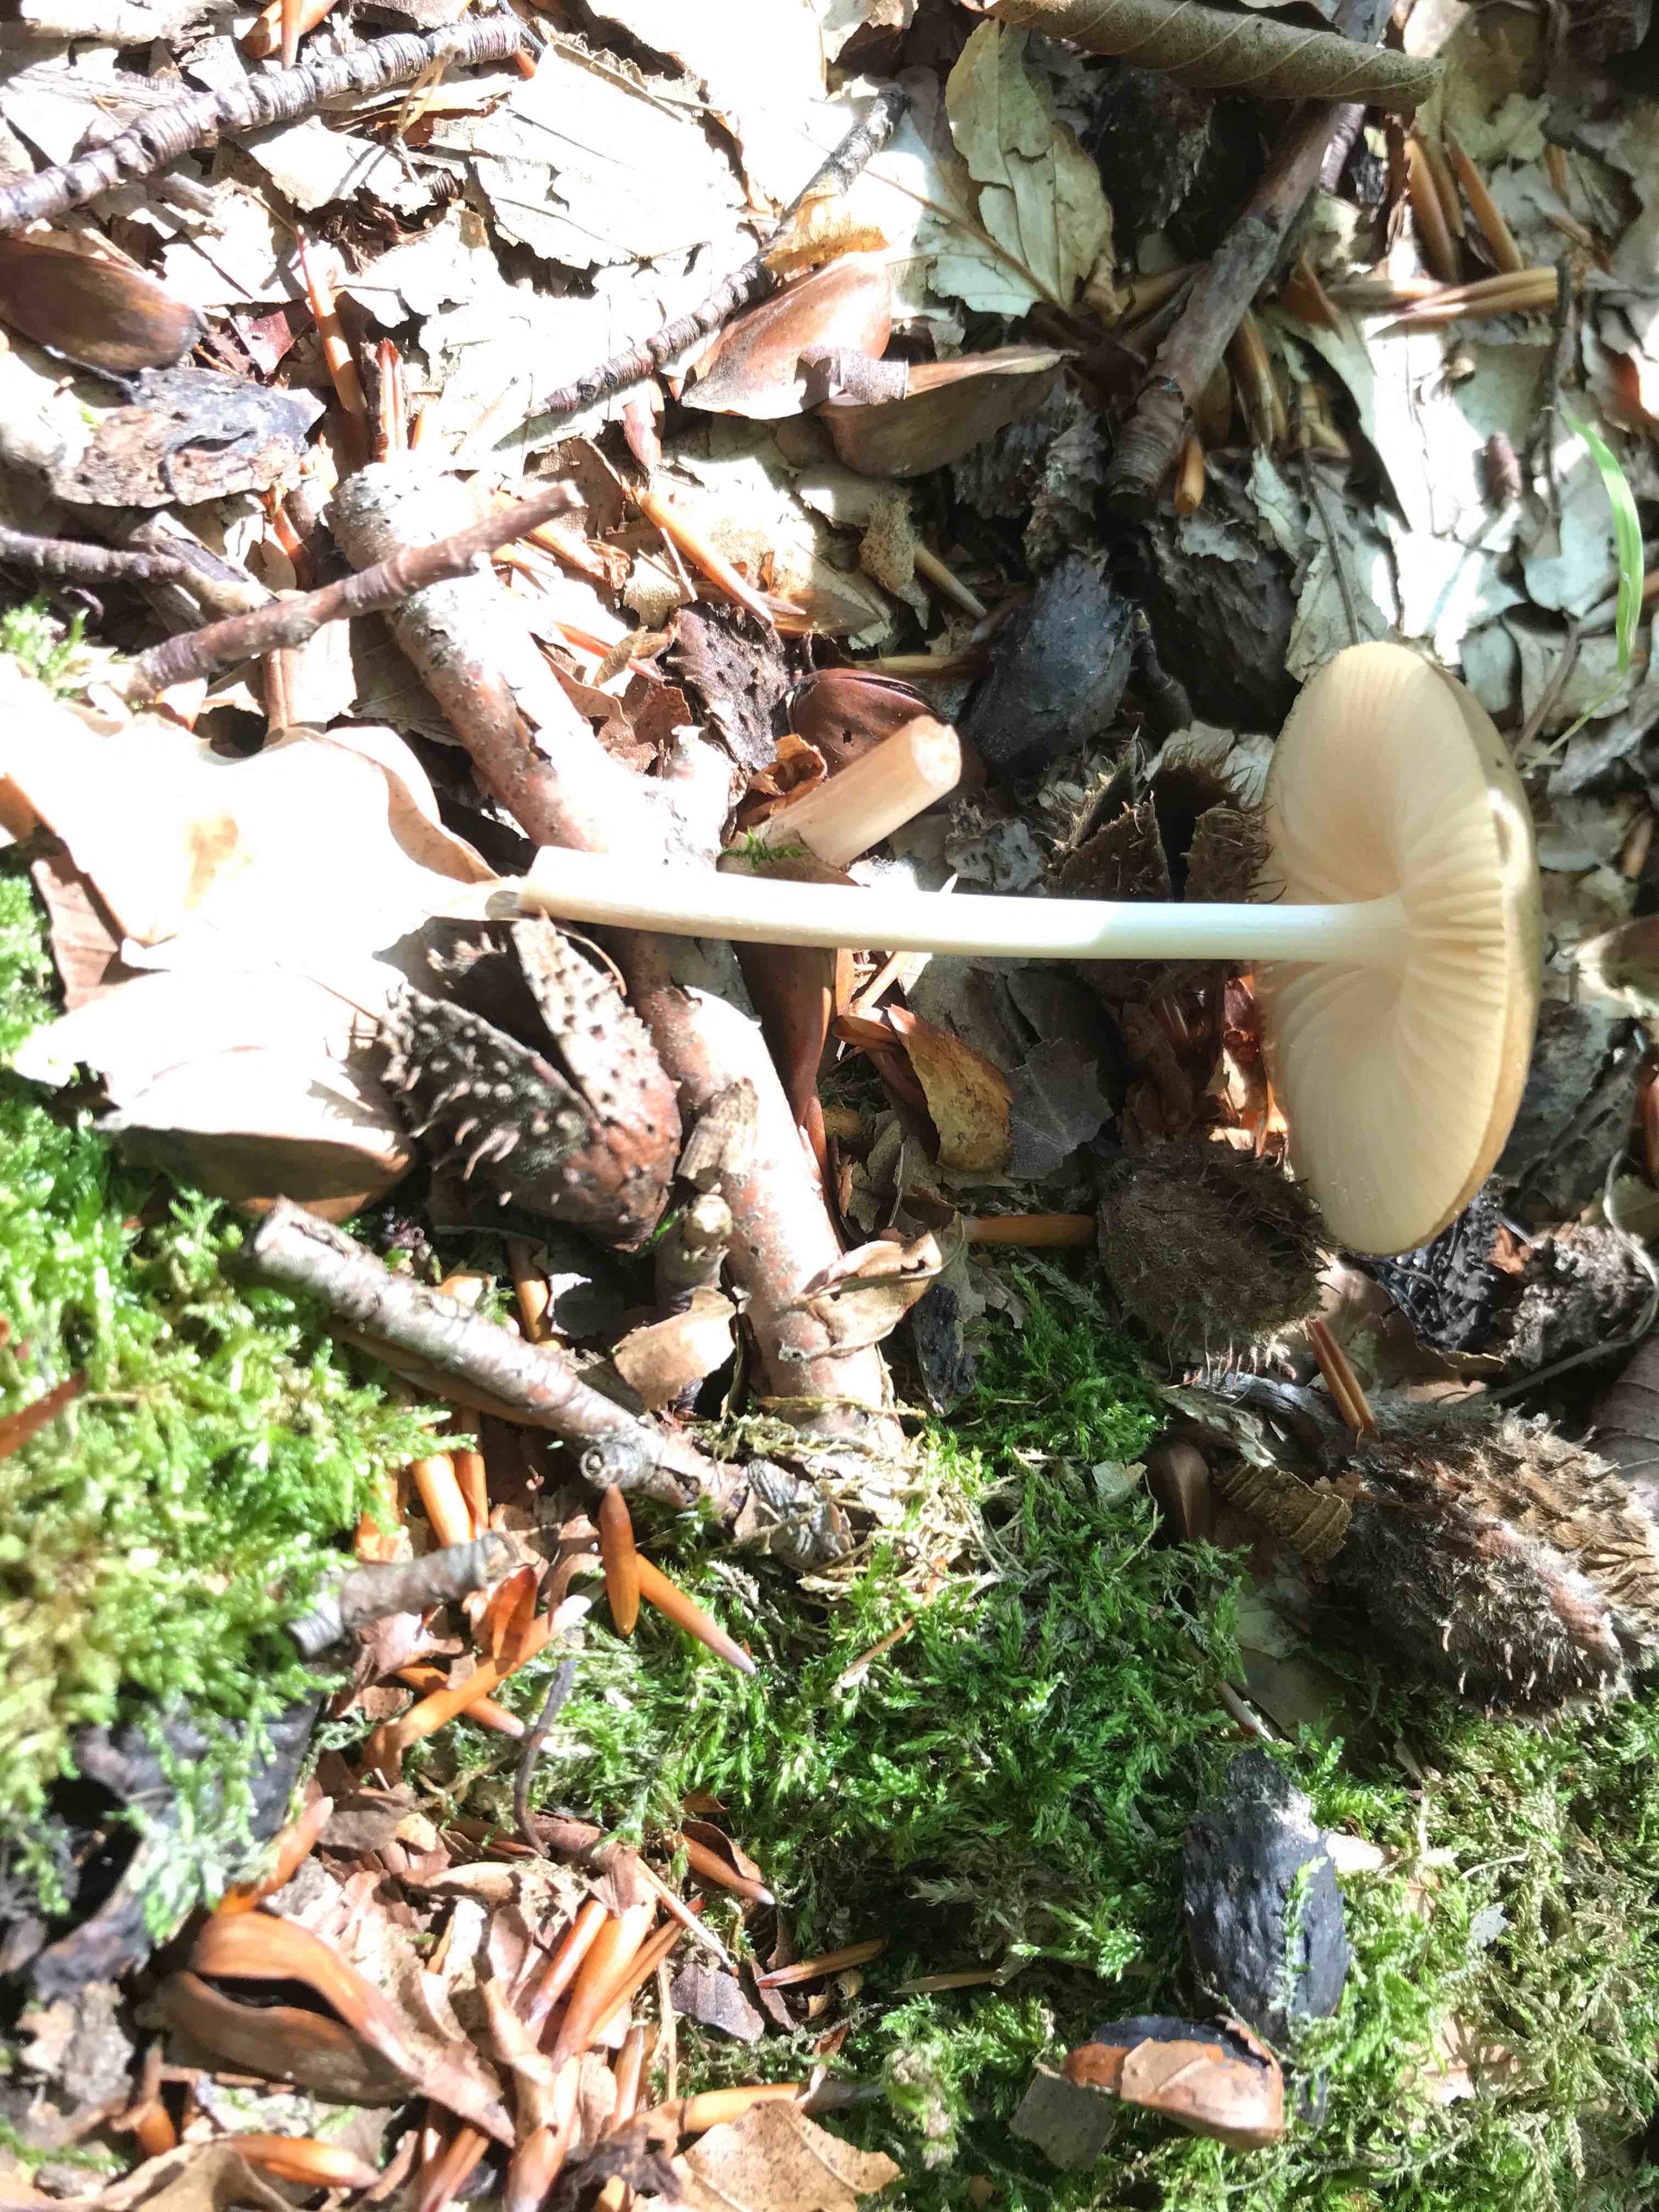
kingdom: Fungi
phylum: Basidiomycota
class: Agaricomycetes
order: Agaricales
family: Physalacriaceae
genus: Hymenopellis
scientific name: Hymenopellis radicata
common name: almindelig pælerodshat
